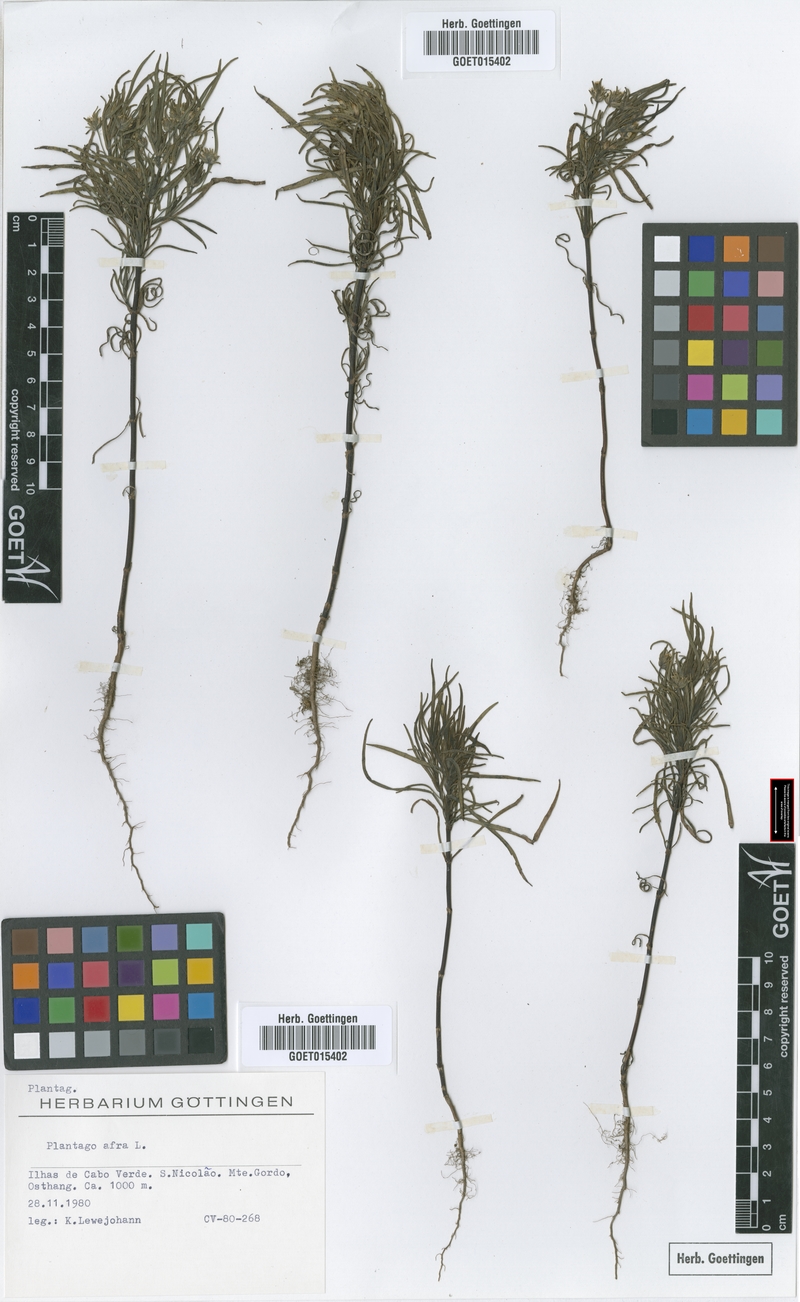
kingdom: Plantae
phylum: Tracheophyta
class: Magnoliopsida
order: Lamiales
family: Plantaginaceae
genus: Plantago
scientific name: Plantago afra
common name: Glandular plantain
